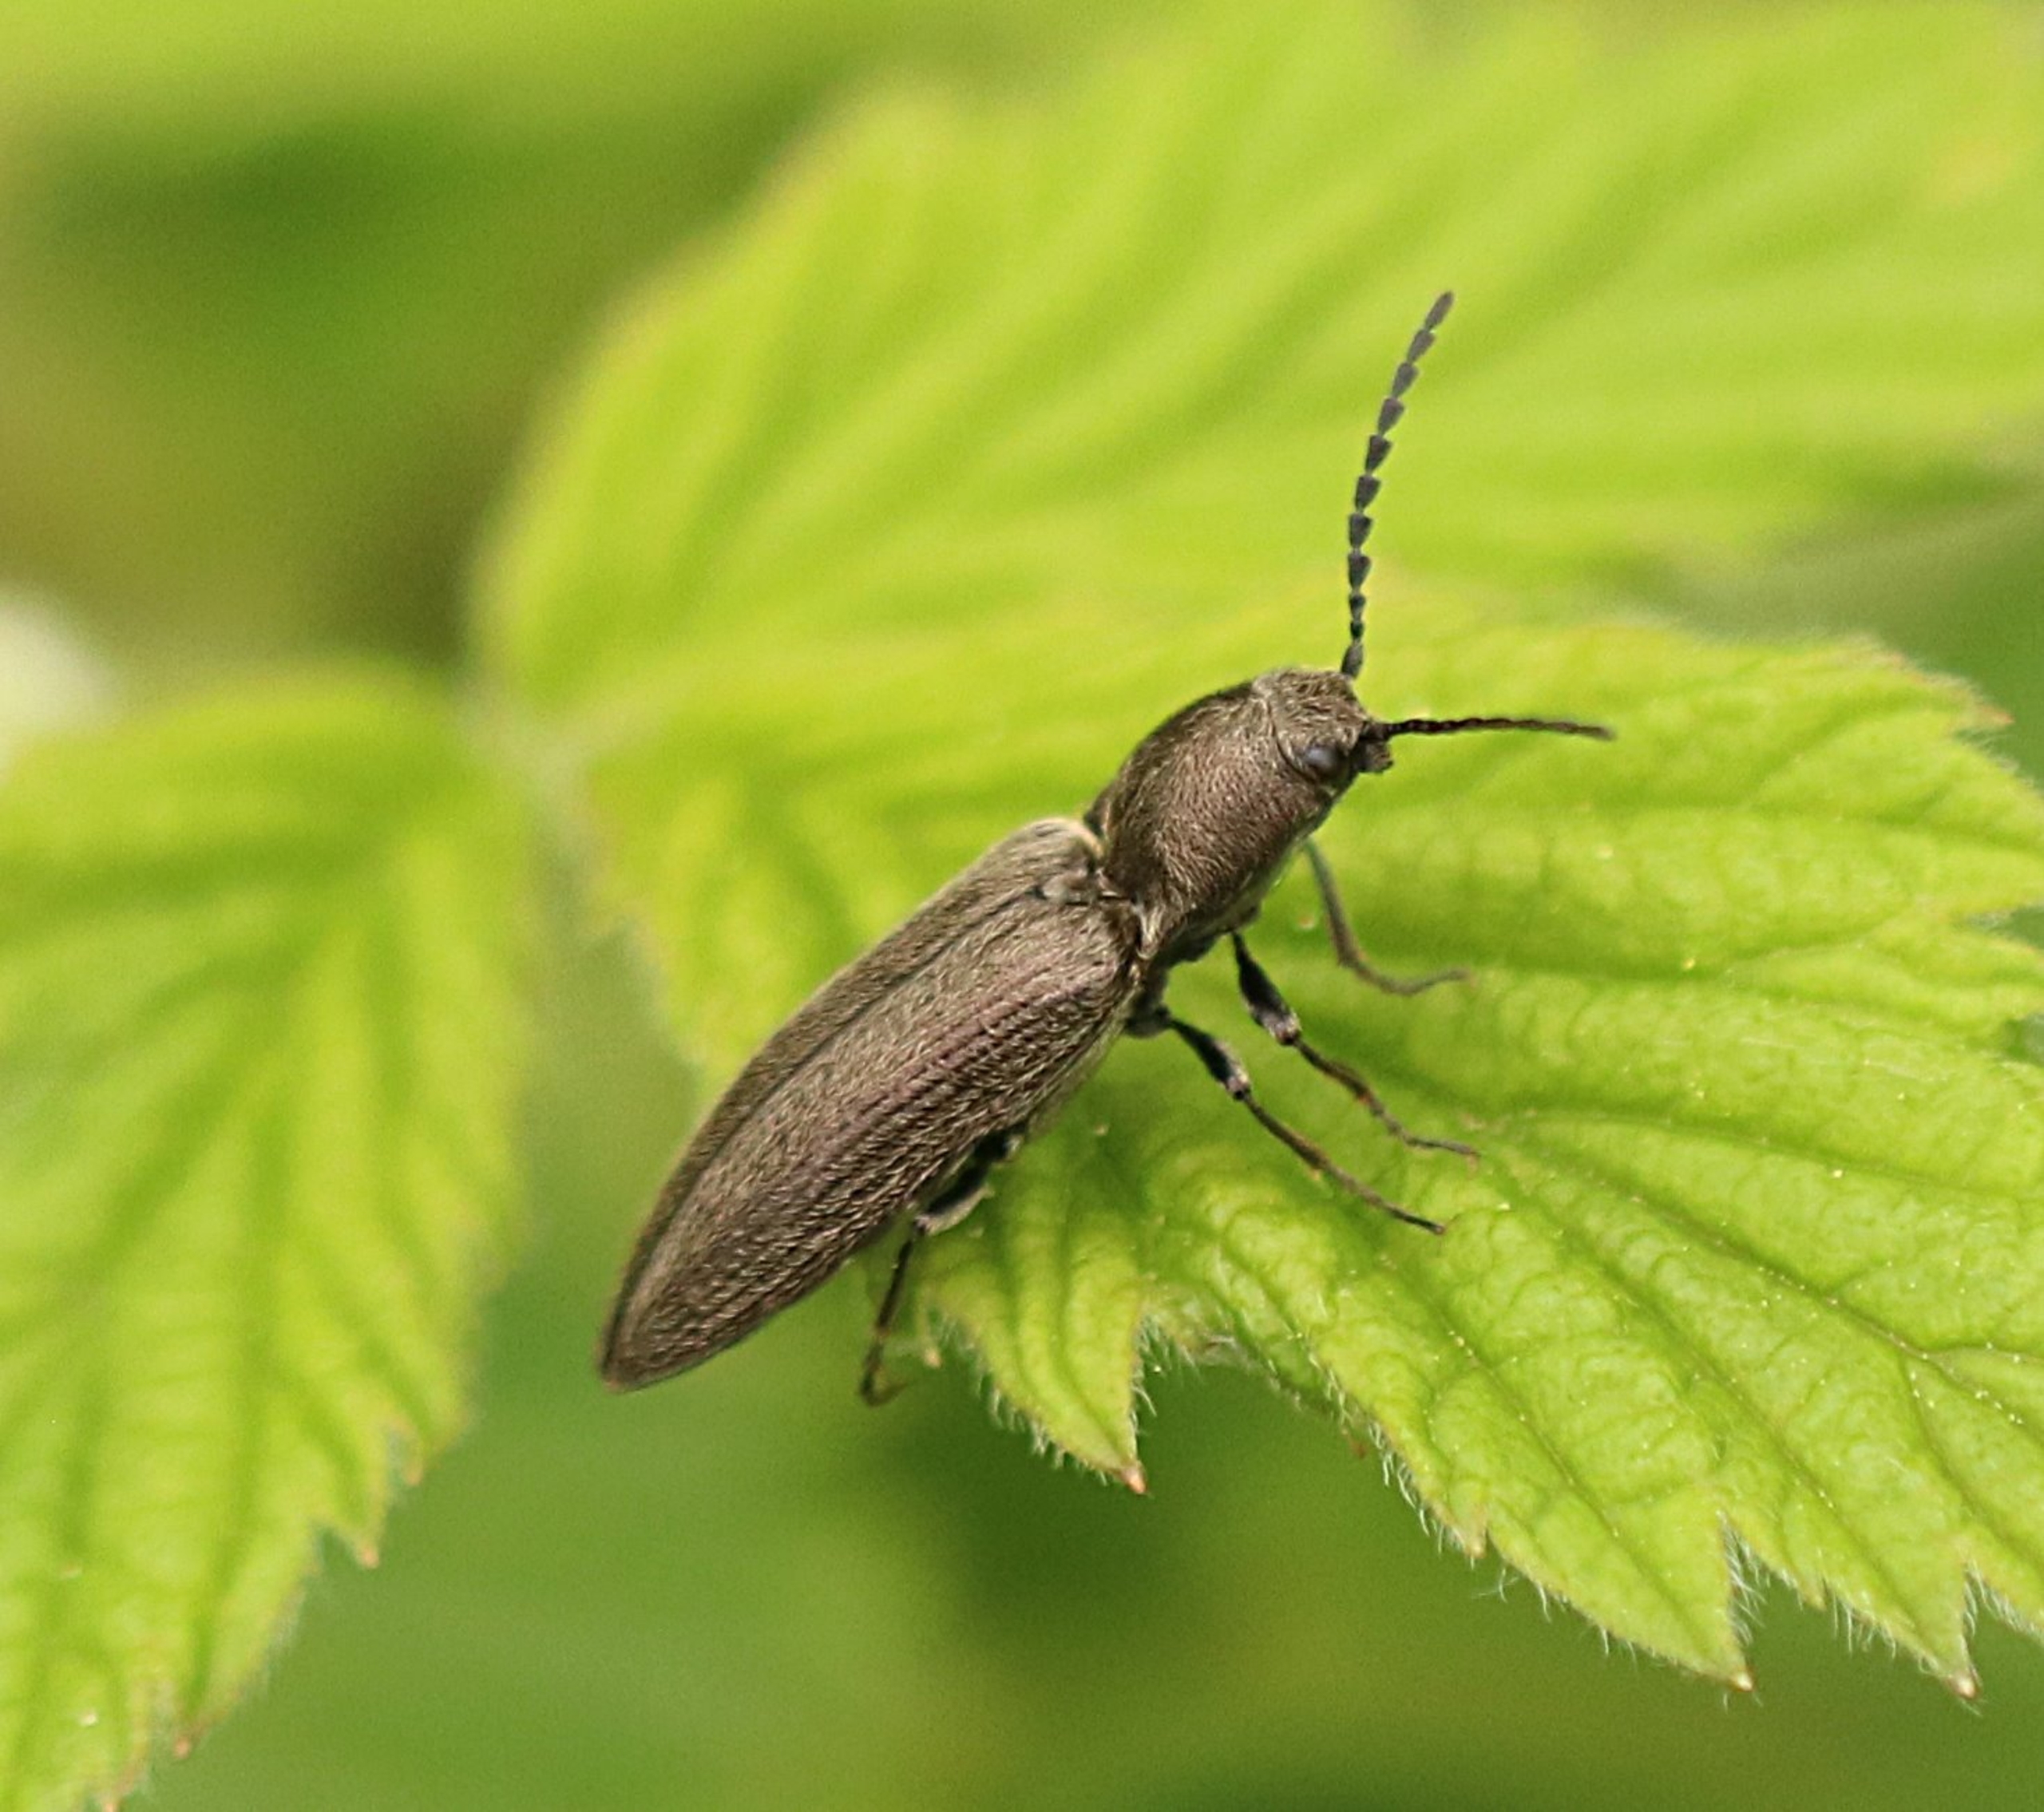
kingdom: Animalia
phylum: Arthropoda
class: Insecta
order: Coleoptera
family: Elateridae
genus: Cidnopus
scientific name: Cidnopus aeruginosus
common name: Ligebred græssmælder
